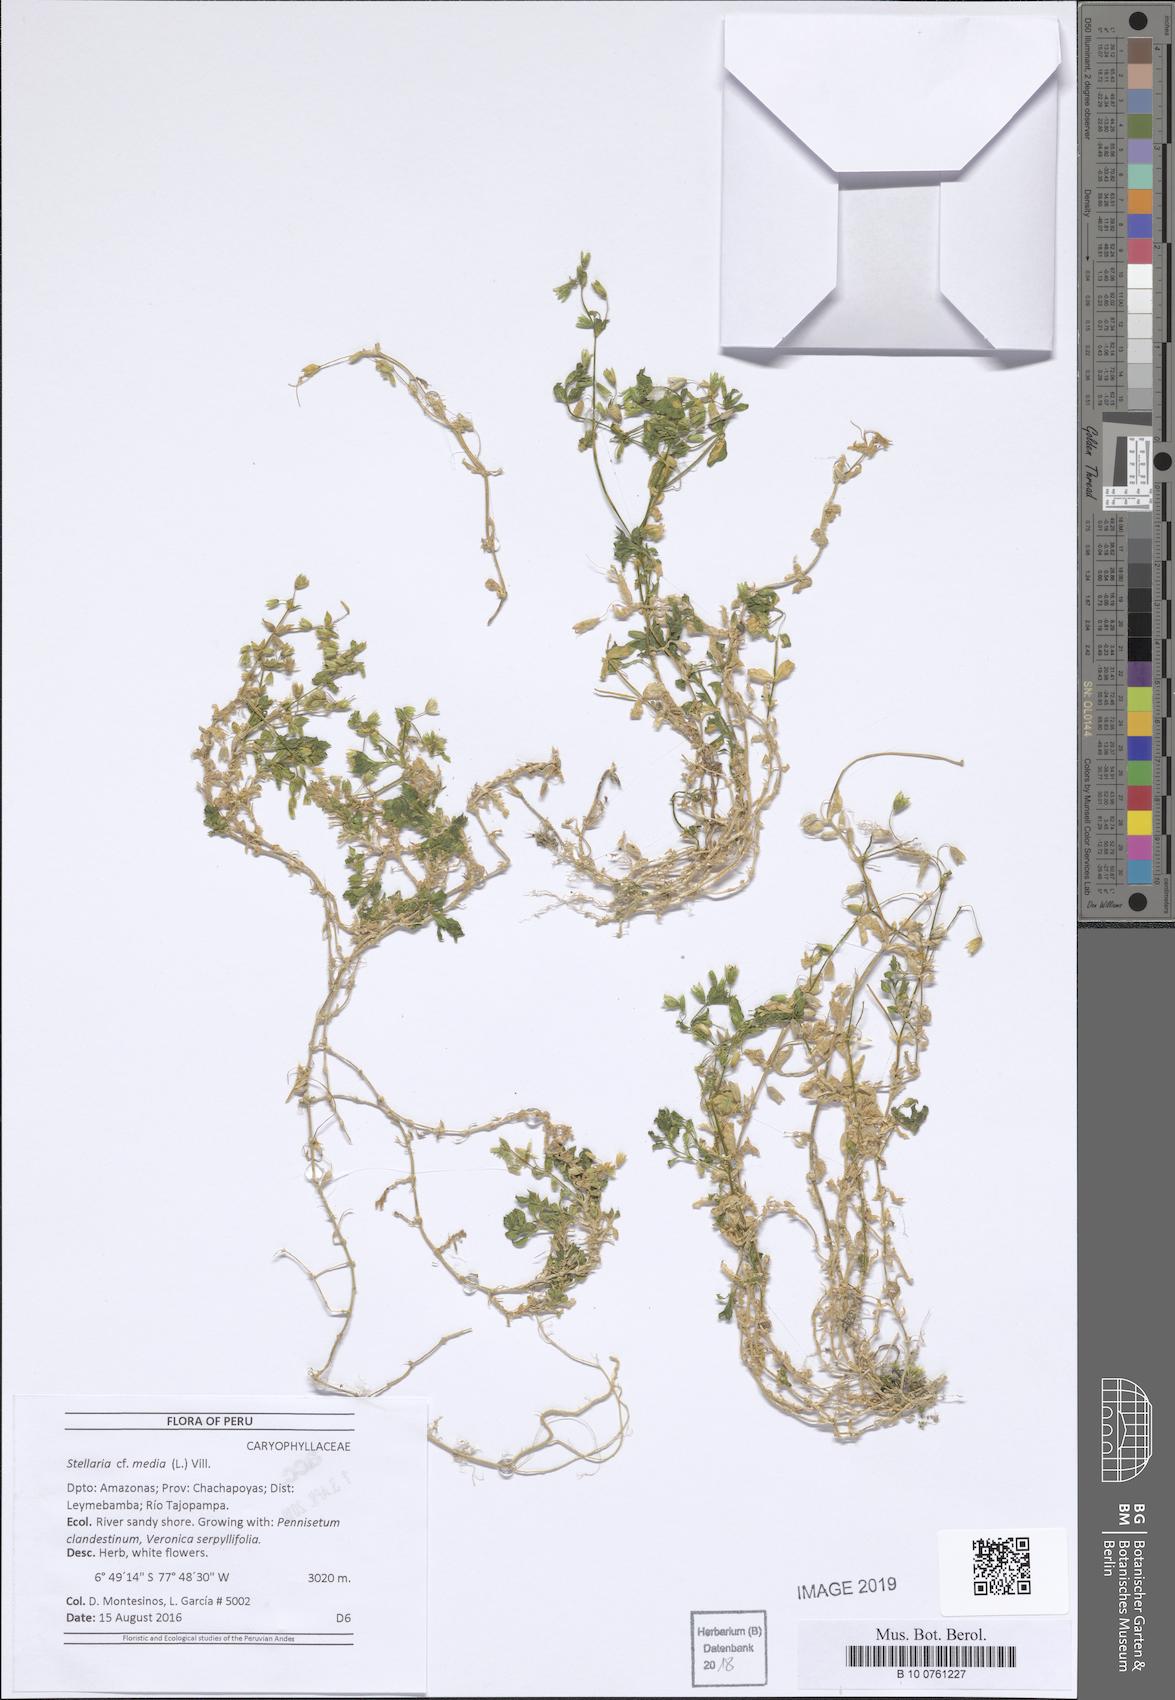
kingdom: Plantae
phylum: Tracheophyta
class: Magnoliopsida
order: Caryophyllales
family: Caryophyllaceae
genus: Stellaria
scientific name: Stellaria media
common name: Common chickweed
